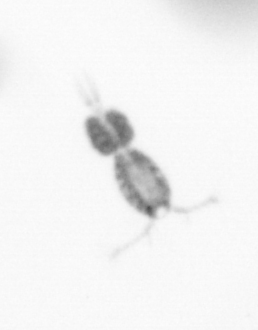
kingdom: Animalia
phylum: Arthropoda
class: Copepoda
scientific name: Copepoda
